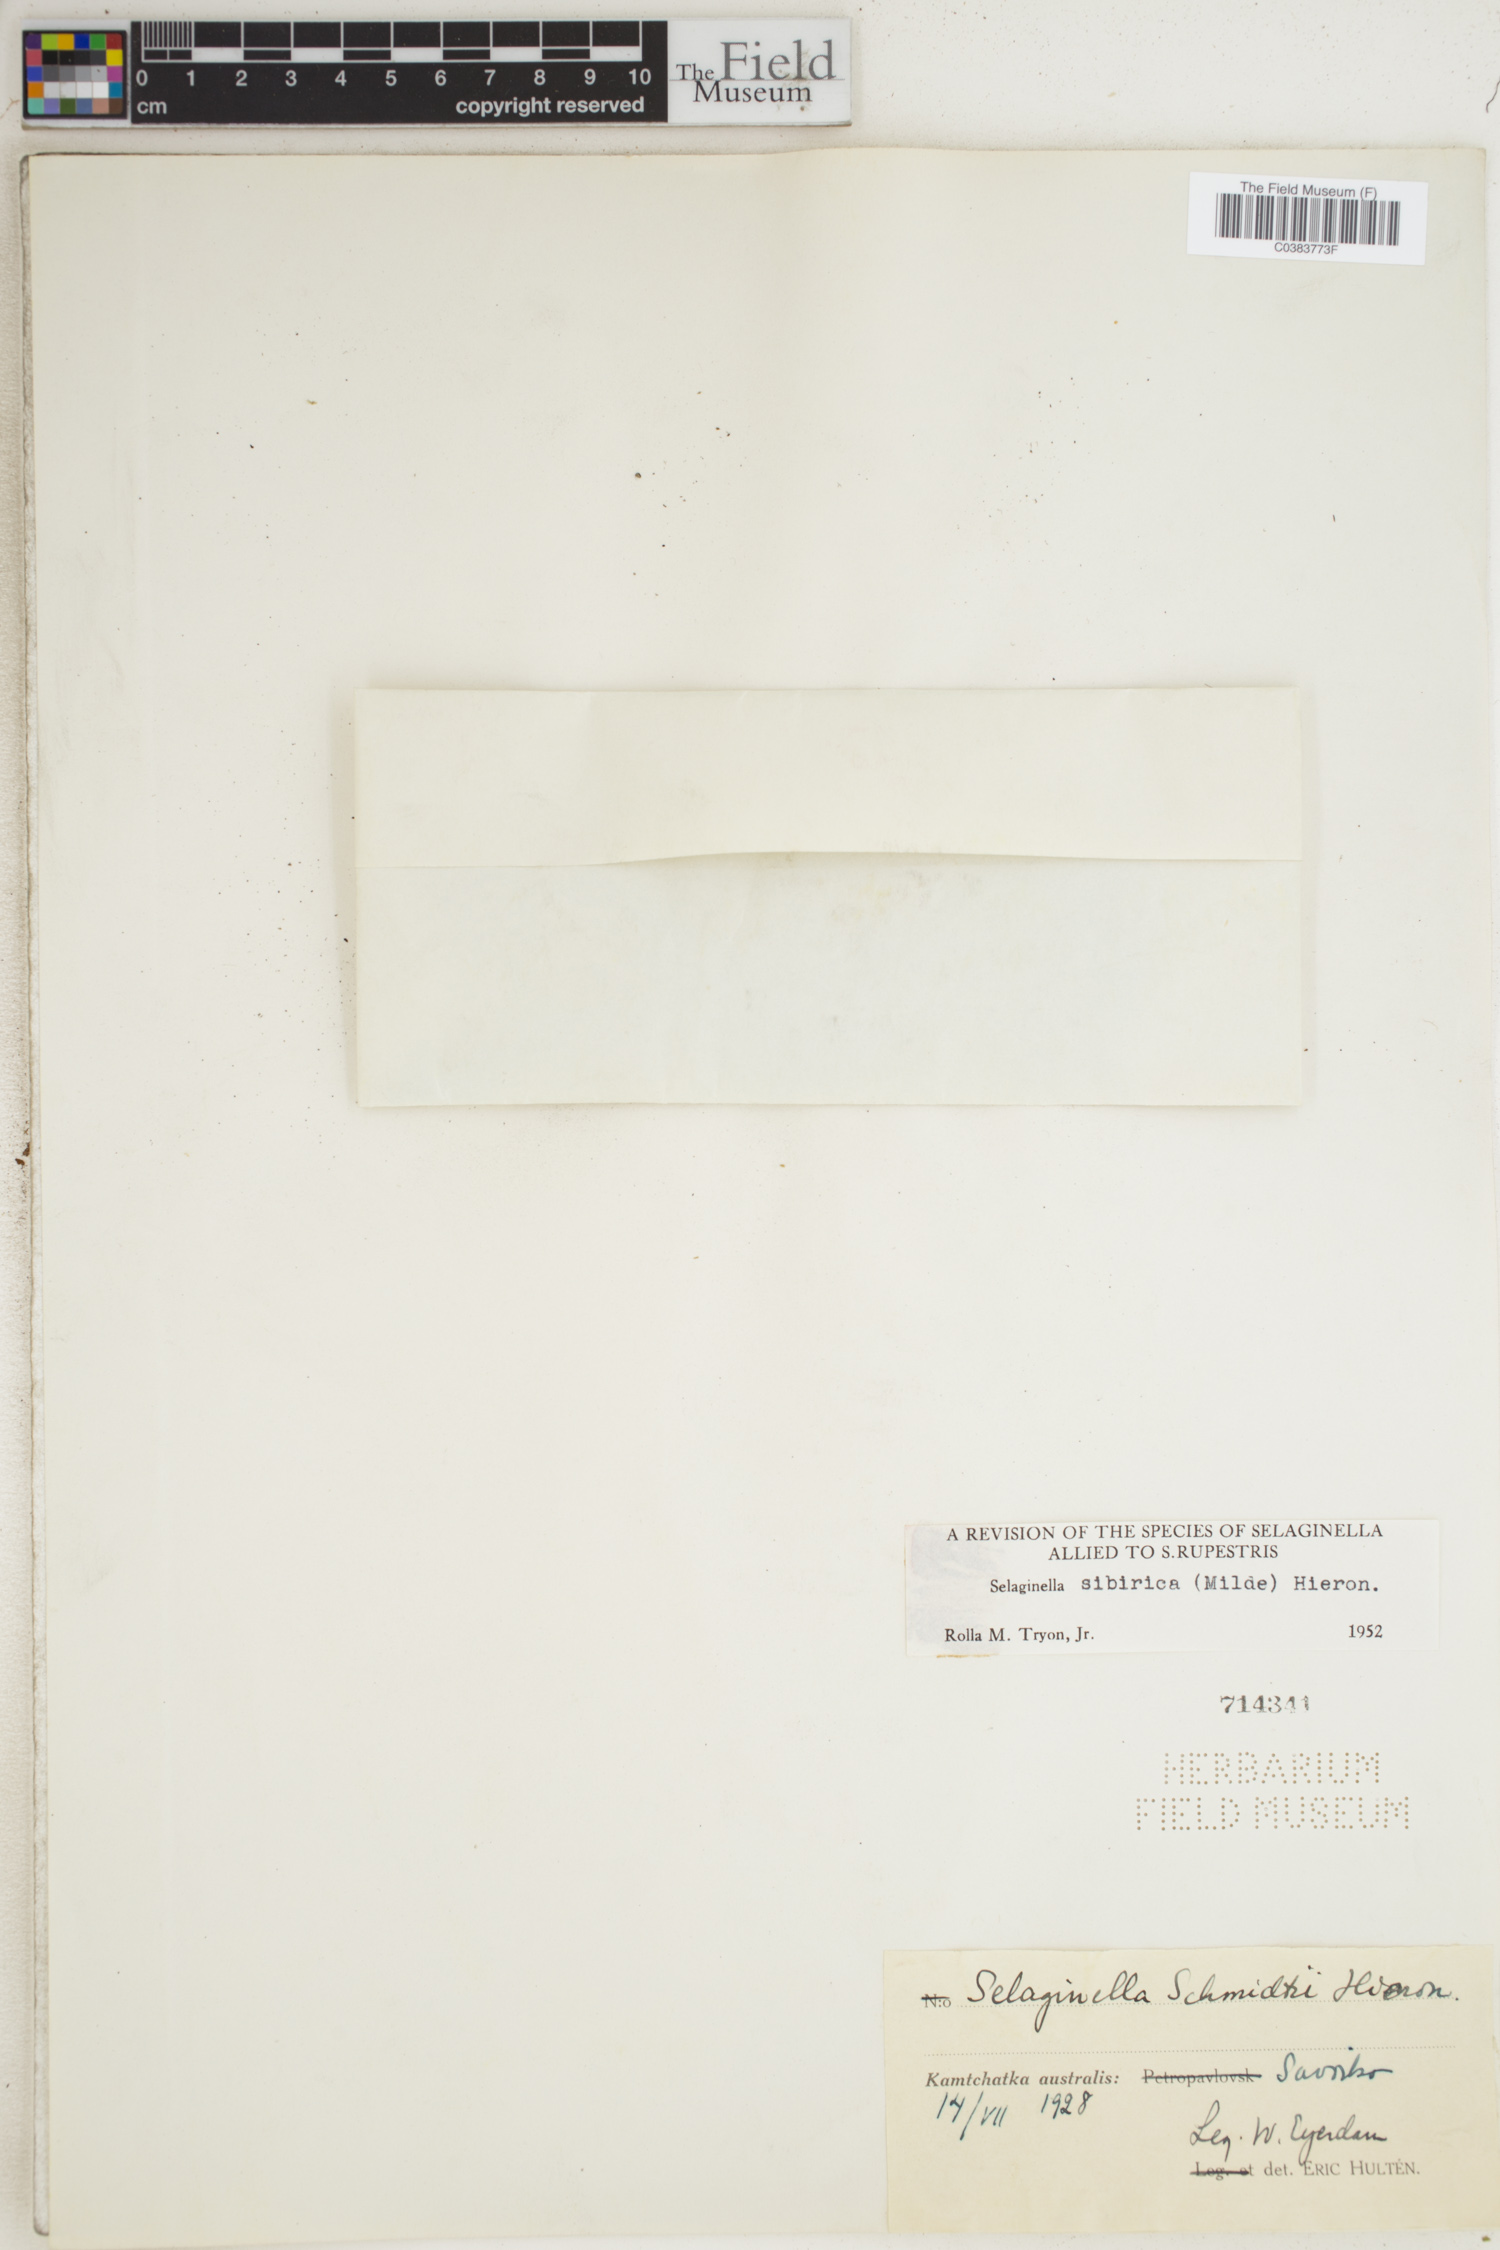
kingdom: Plantae
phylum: Tracheophyta
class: Lycopodiopsida
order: Selaginellales
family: Selaginellaceae
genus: Selaginella
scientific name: Selaginella sibirica
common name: Siberian spikemoss
